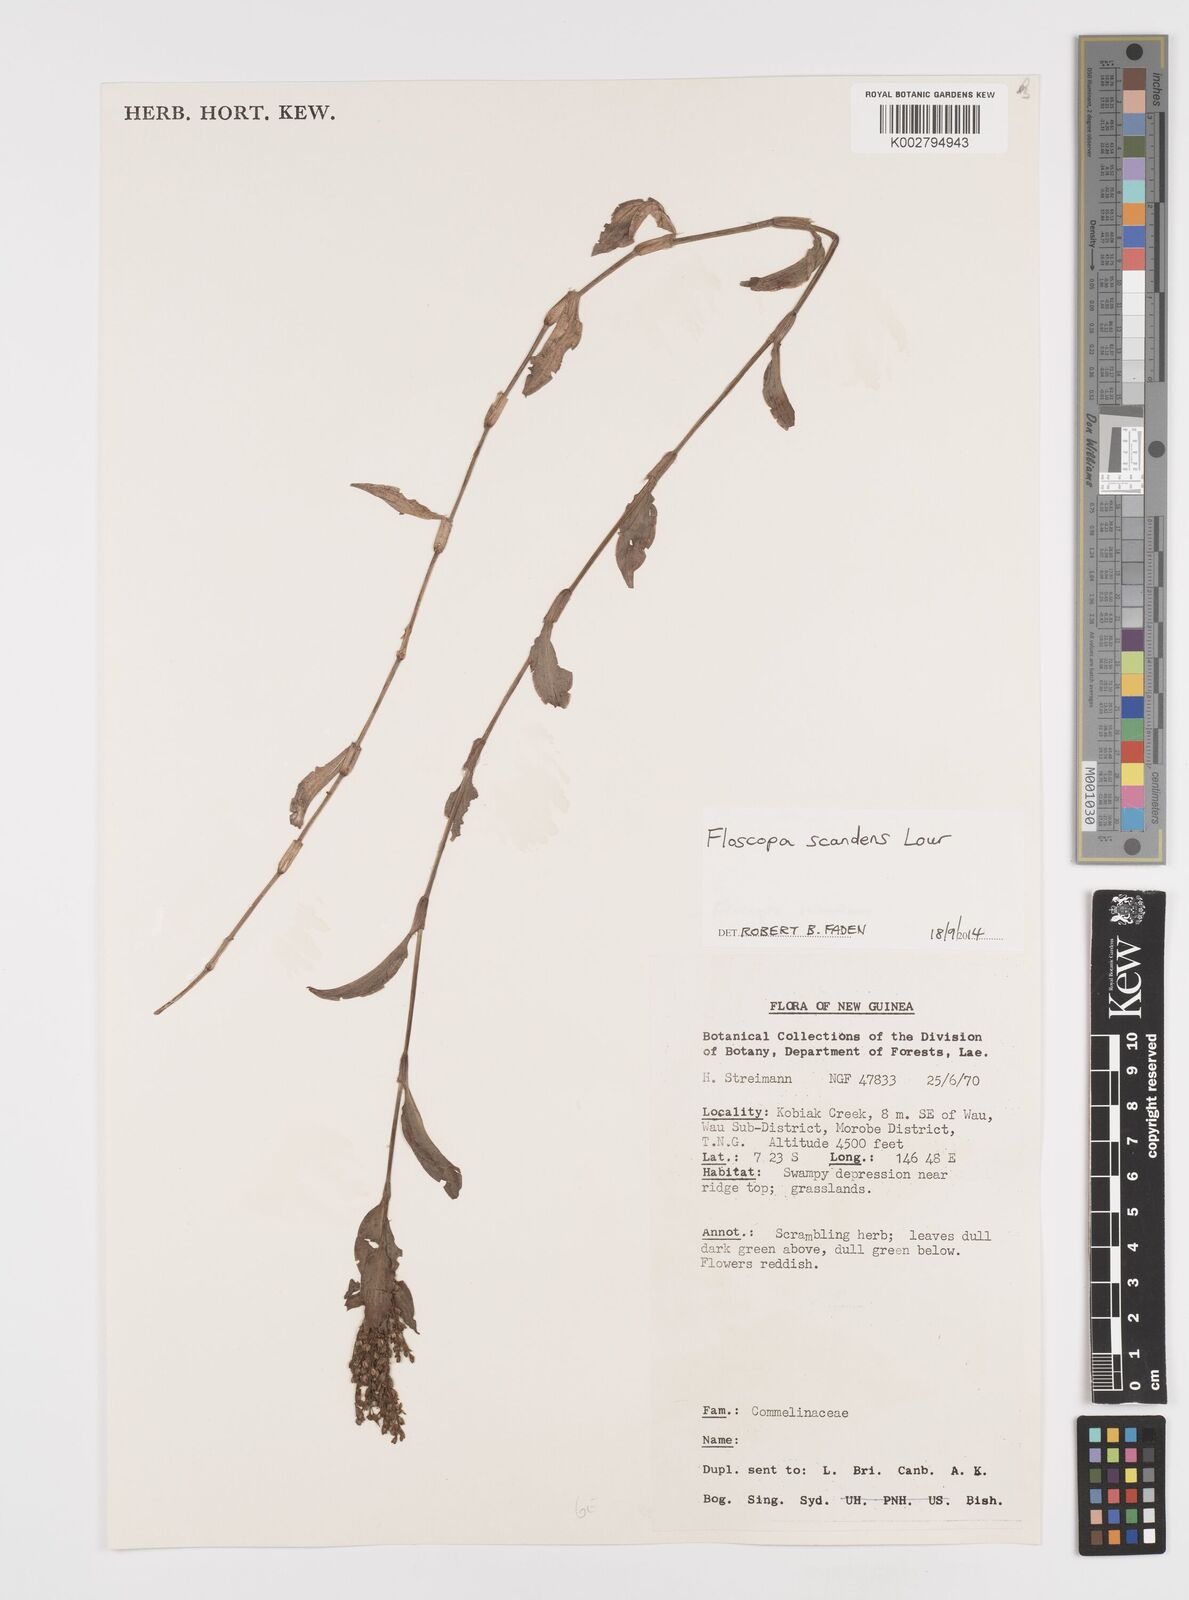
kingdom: Plantae
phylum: Tracheophyta
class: Liliopsida
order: Commelinales
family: Commelinaceae
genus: Floscopa
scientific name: Floscopa scandens
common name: Climbing flower cup
